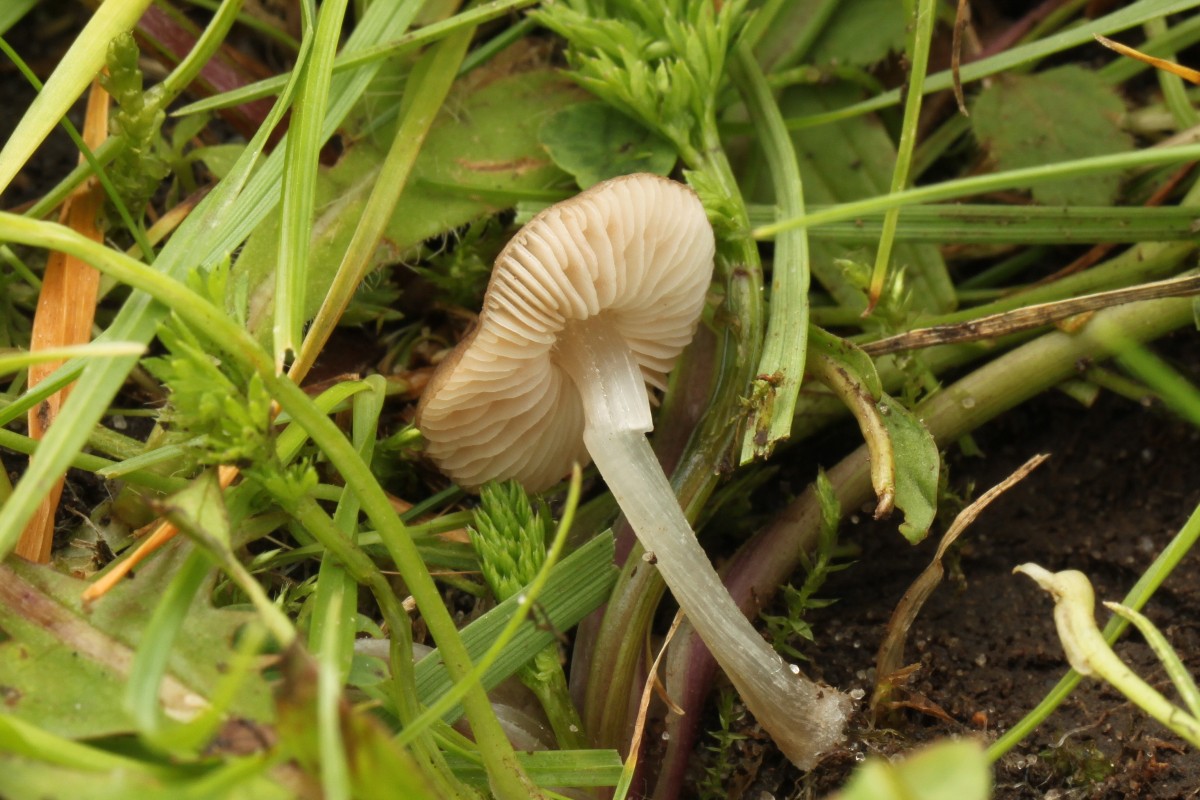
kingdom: Fungi
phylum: Basidiomycota
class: Agaricomycetes
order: Agaricales
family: Pluteaceae
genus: Pluteus
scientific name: Pluteus spinosae
